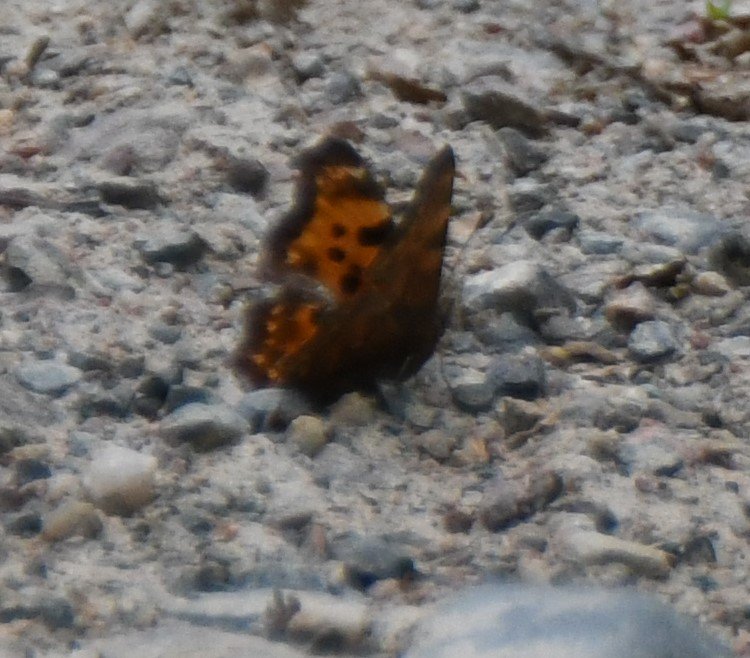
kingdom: Animalia
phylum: Arthropoda
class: Insecta
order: Lepidoptera
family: Nymphalidae
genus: Polygonia
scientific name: Polygonia faunus
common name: Green Comma
